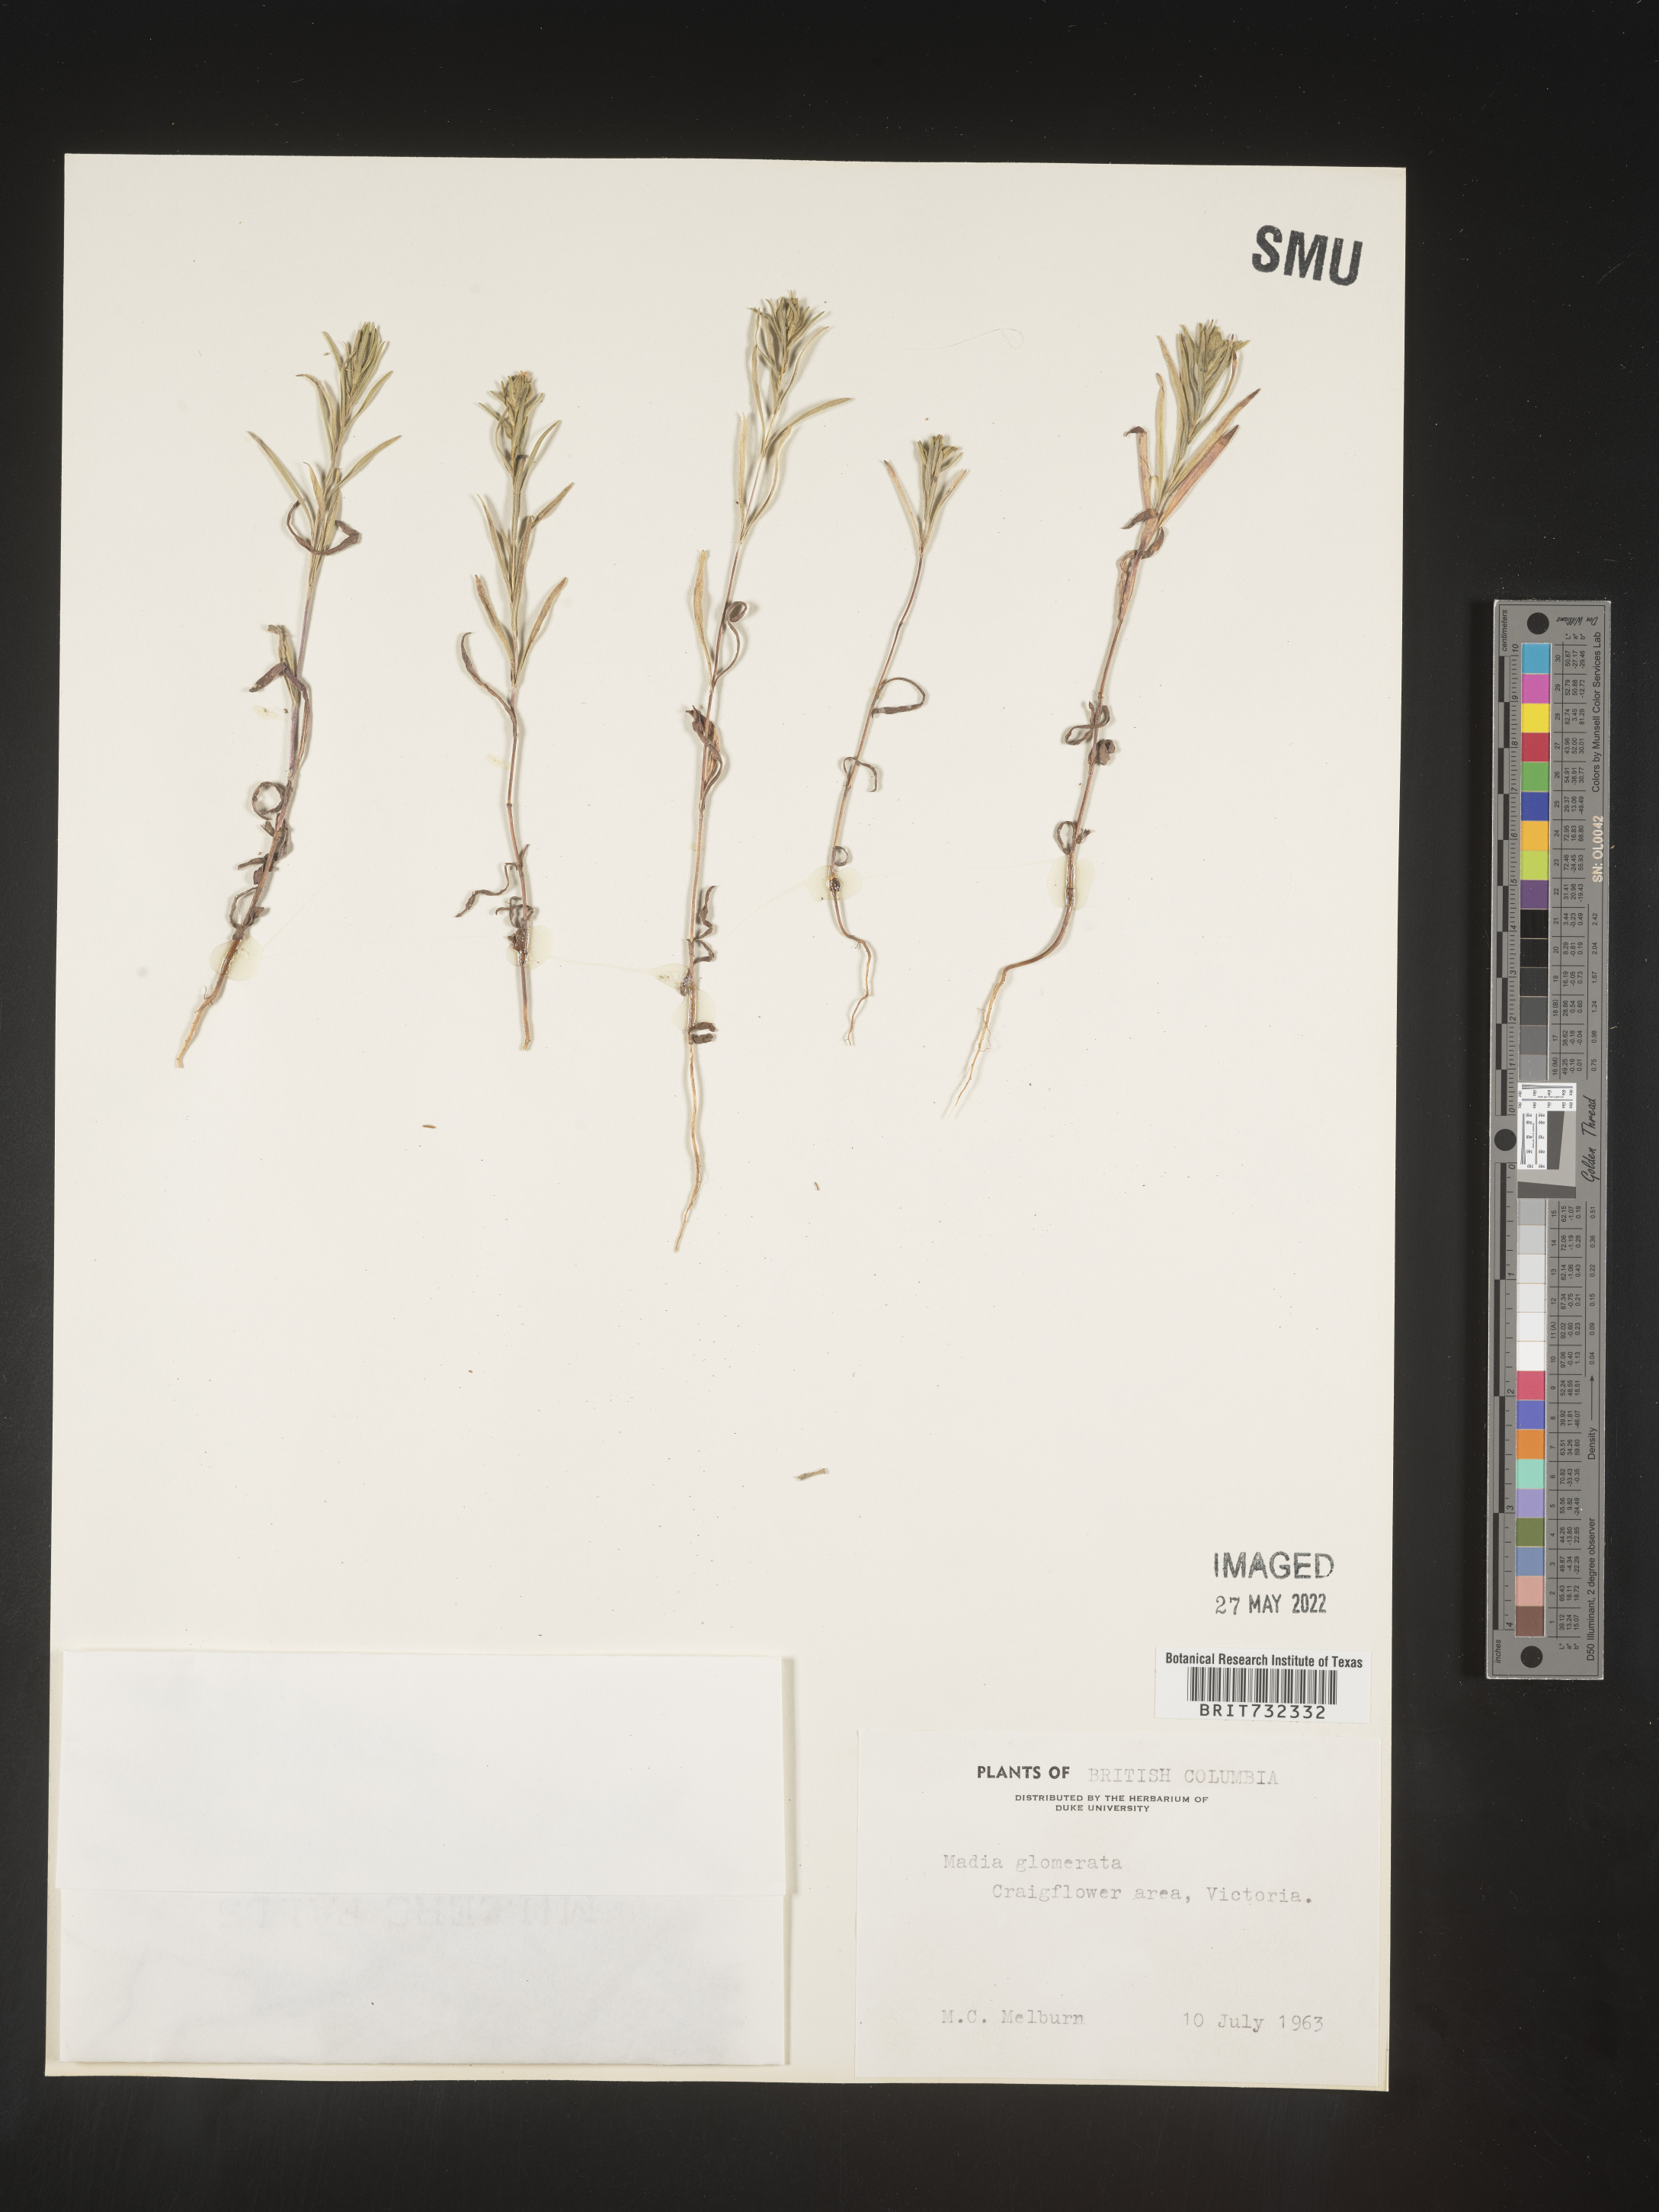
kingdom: Plantae
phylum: Tracheophyta
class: Magnoliopsida
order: Asterales
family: Asteraceae
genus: Madia
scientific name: Madia glomerata
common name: Mountain tarweed
